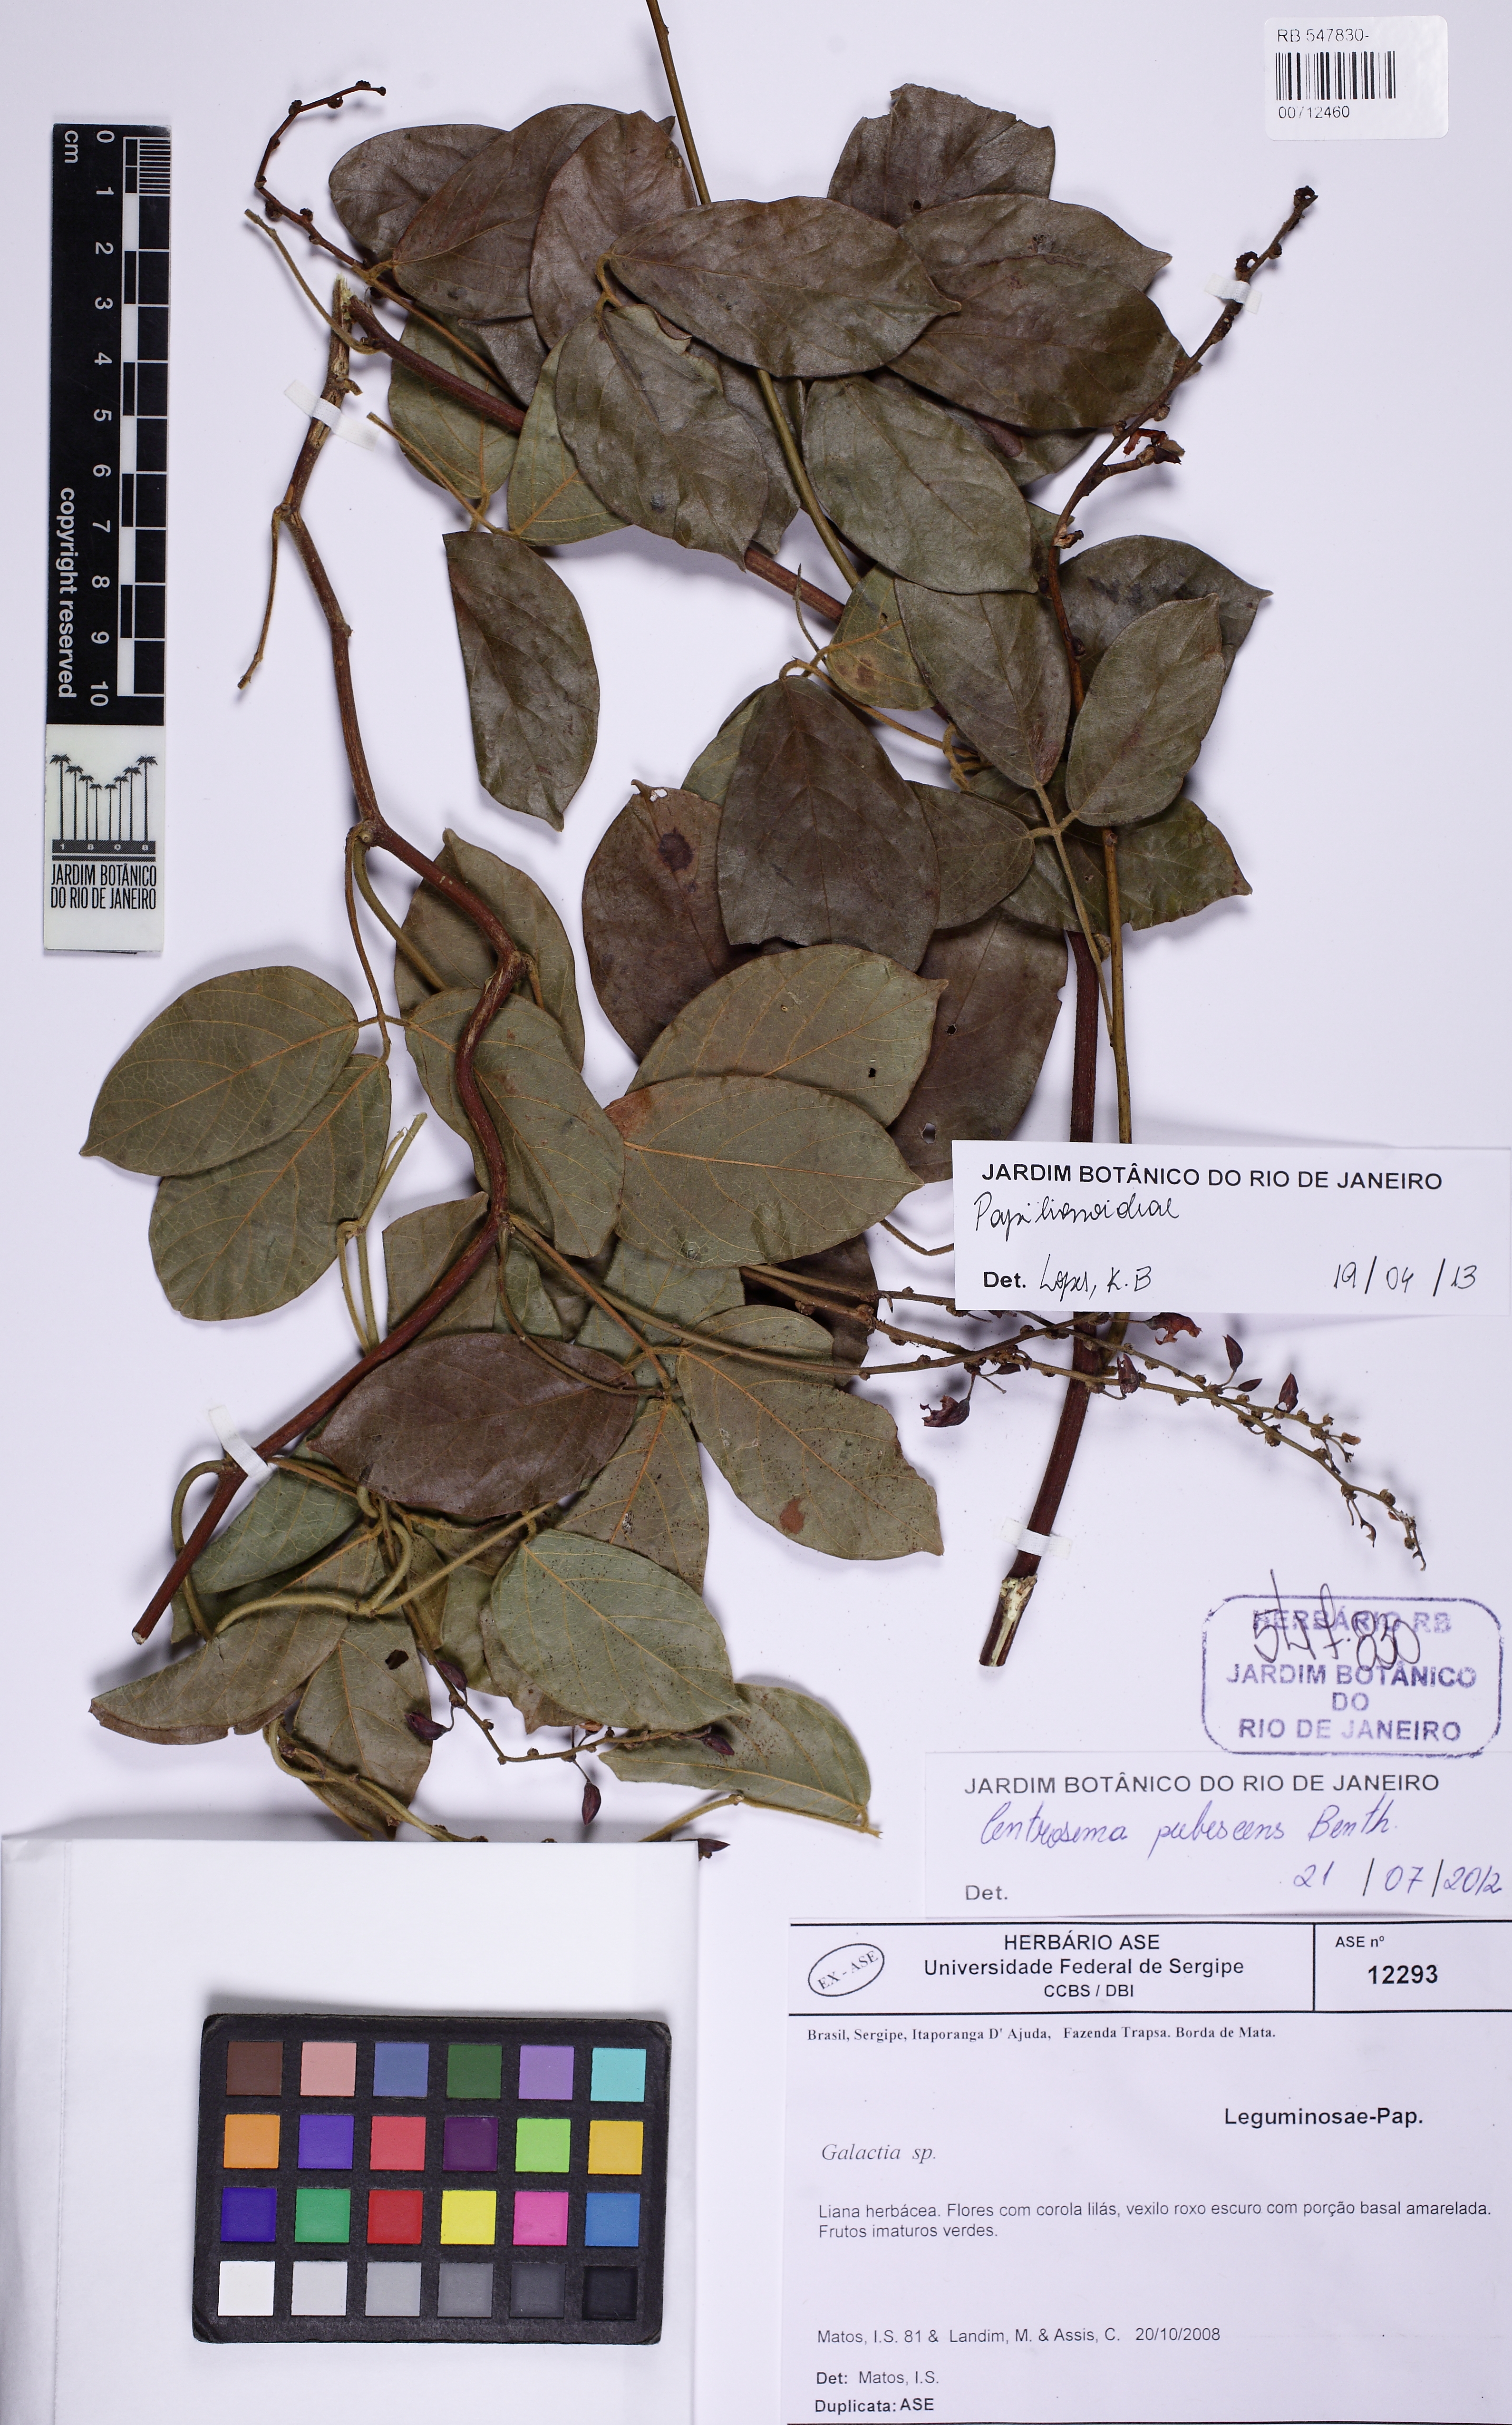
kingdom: Plantae
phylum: Tracheophyta
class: Magnoliopsida
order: Fabales
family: Fabaceae
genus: Centrosema
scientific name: Centrosema
